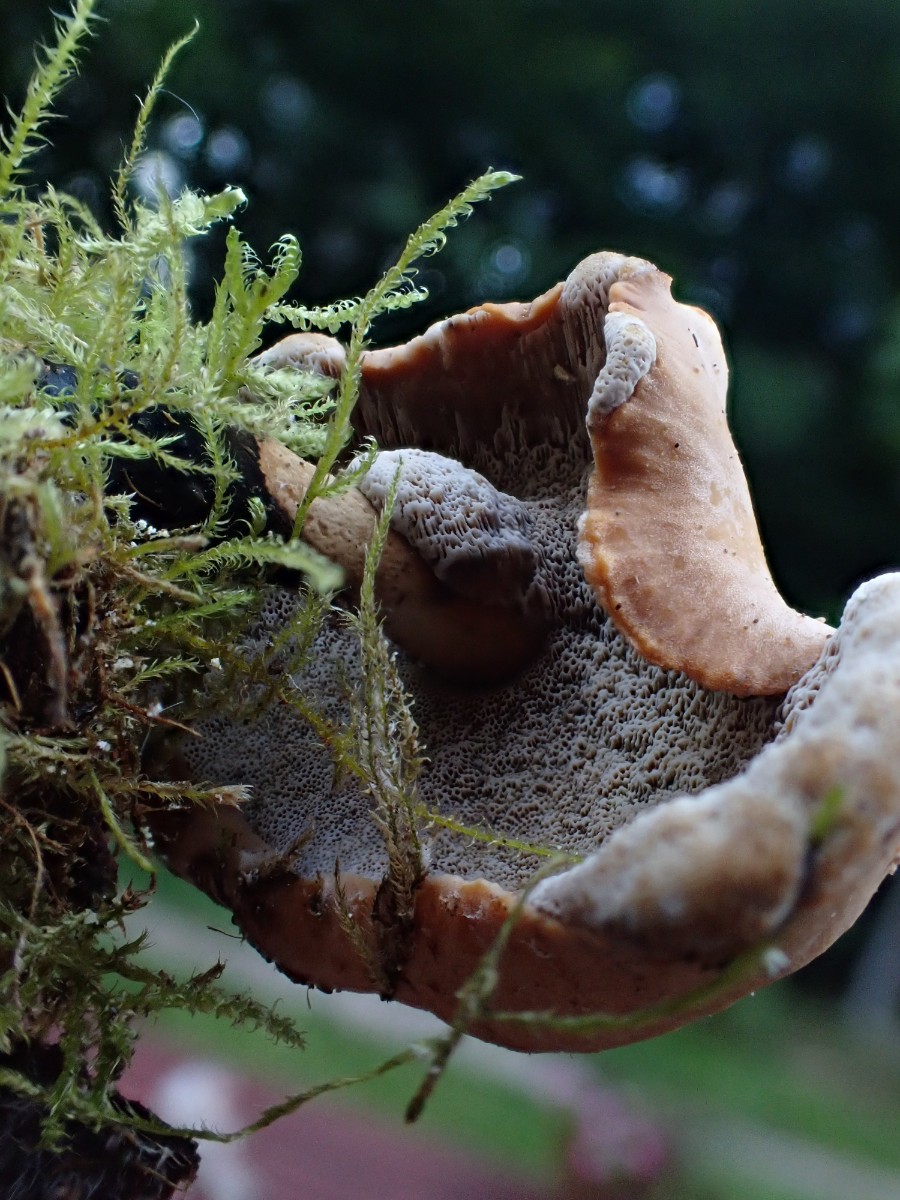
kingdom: Fungi
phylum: Basidiomycota
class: Agaricomycetes
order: Polyporales
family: Polyporaceae
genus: Cerioporus
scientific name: Cerioporus varius
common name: foranderlig stilkporesvamp
